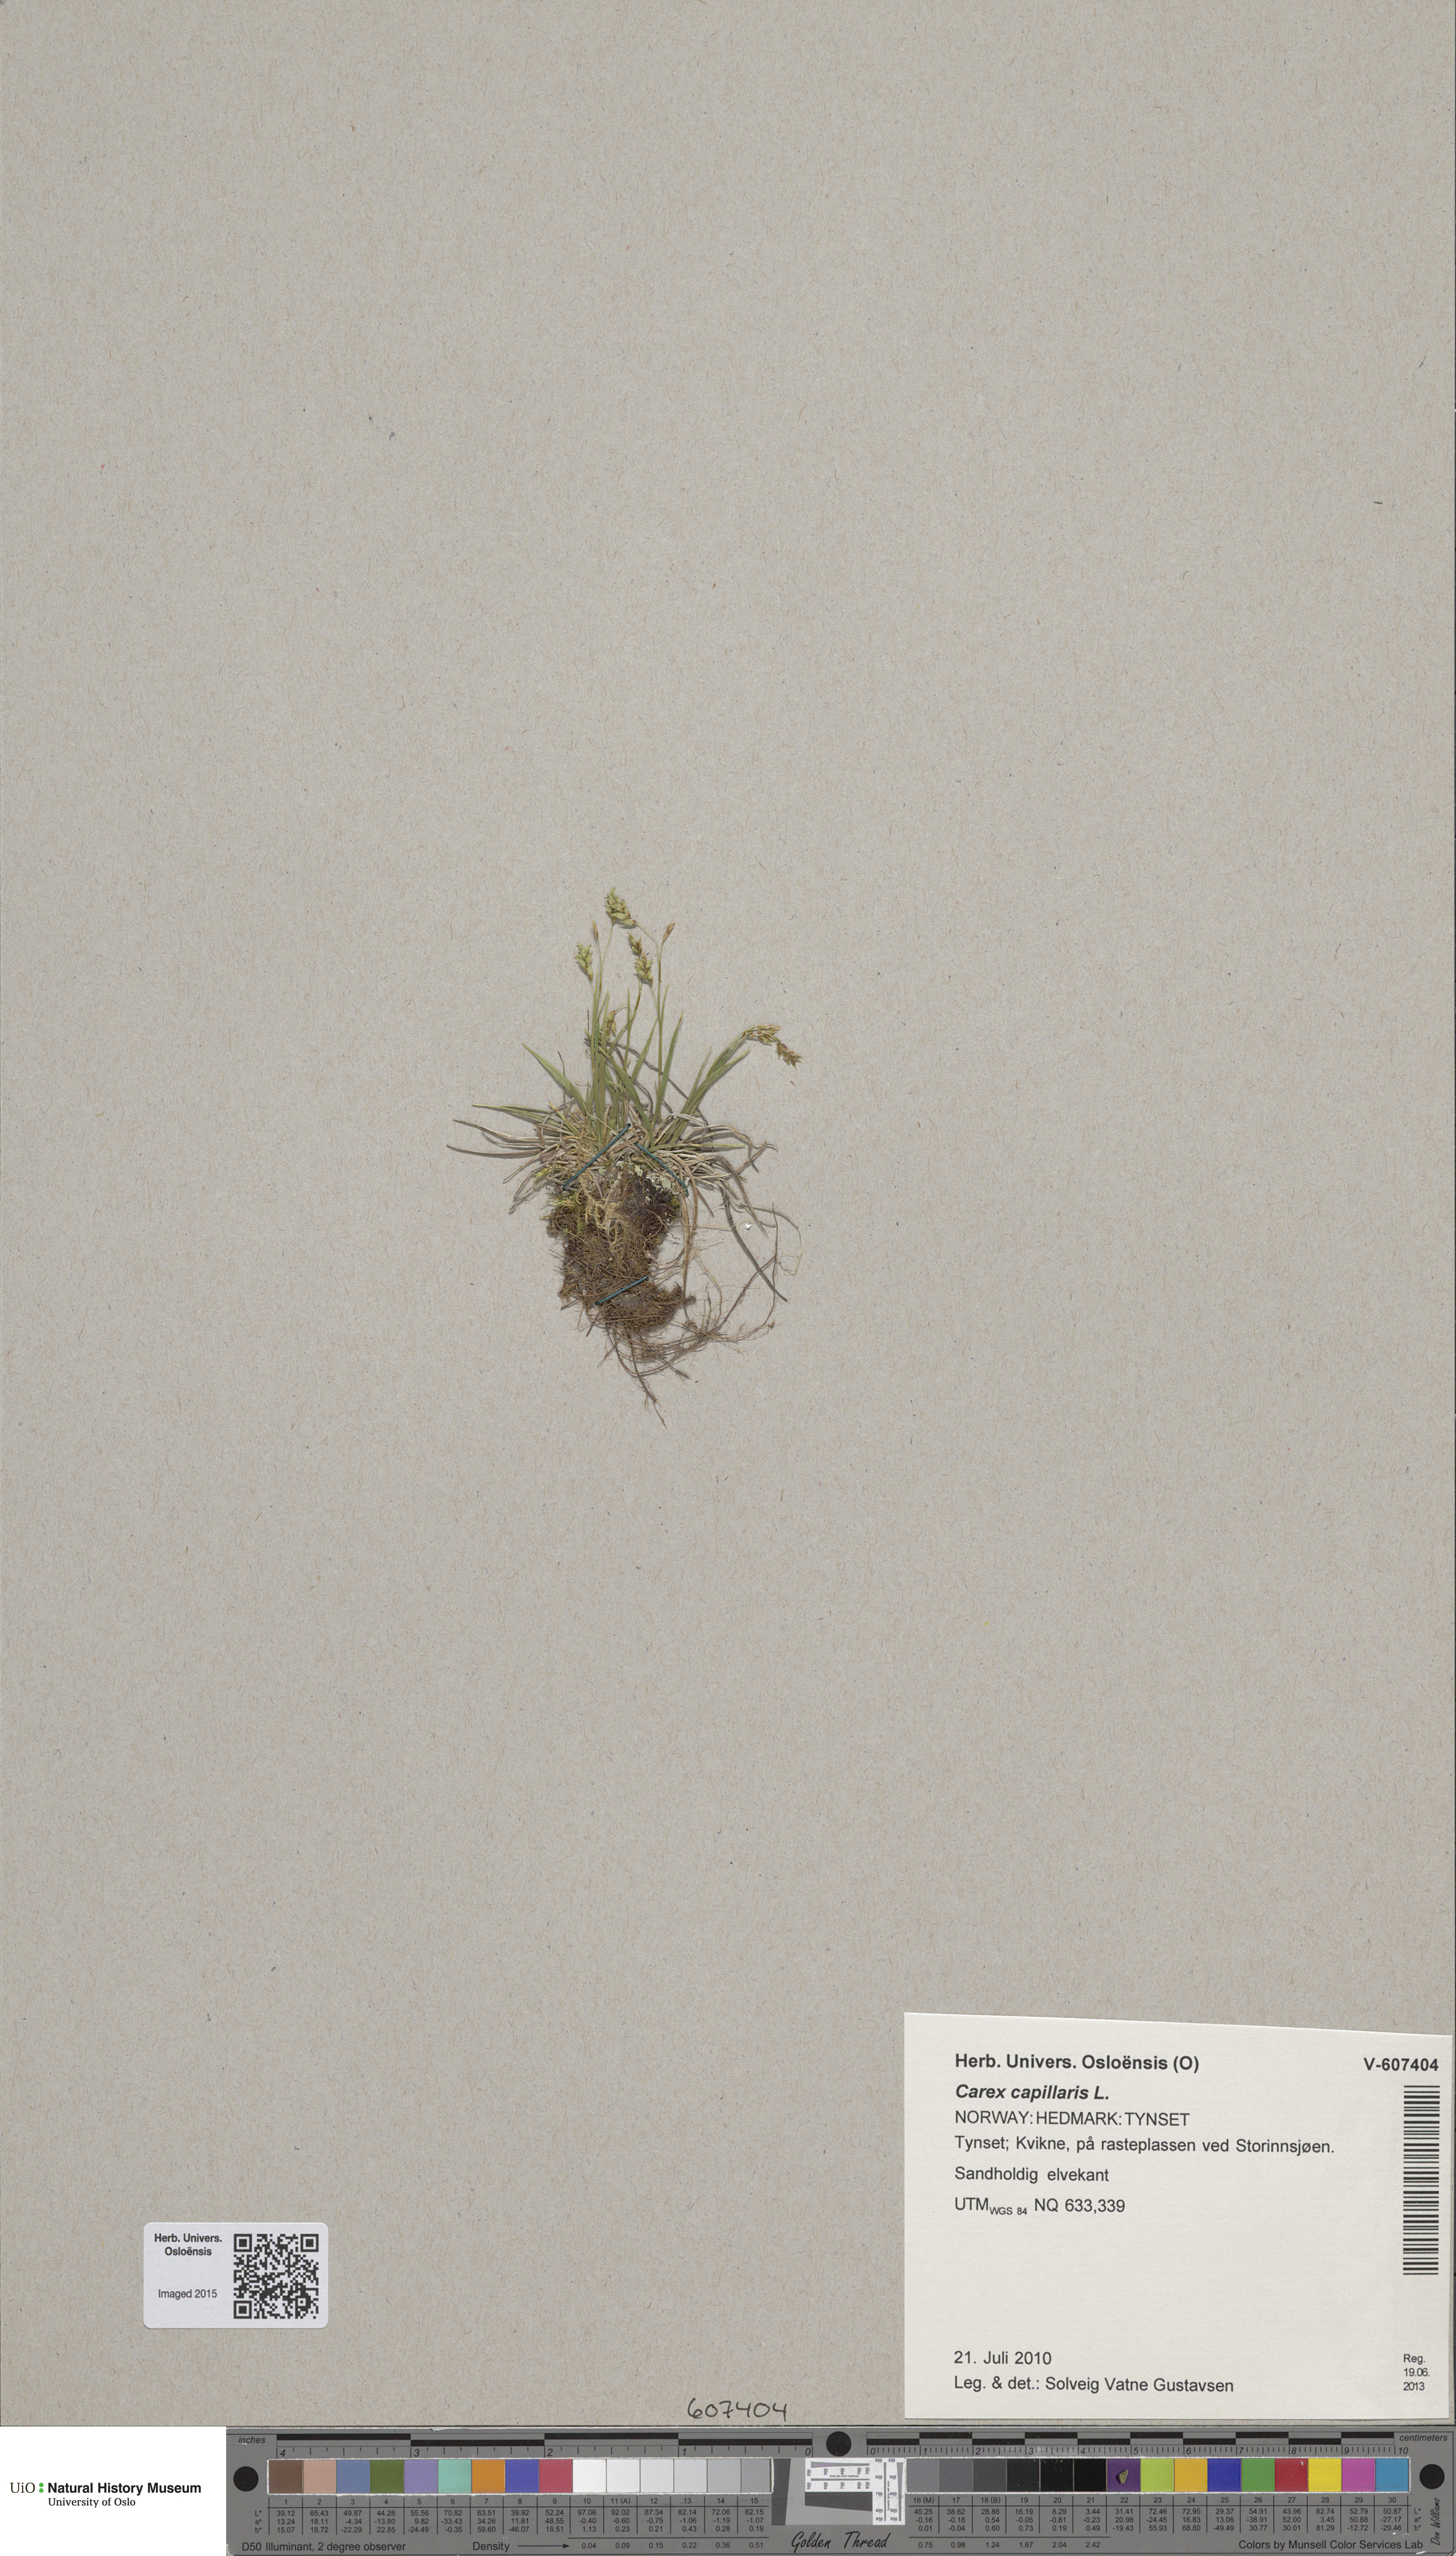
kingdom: Plantae
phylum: Tracheophyta
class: Liliopsida
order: Poales
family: Cyperaceae
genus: Carex
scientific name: Carex capillaris
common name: Hair sedge
